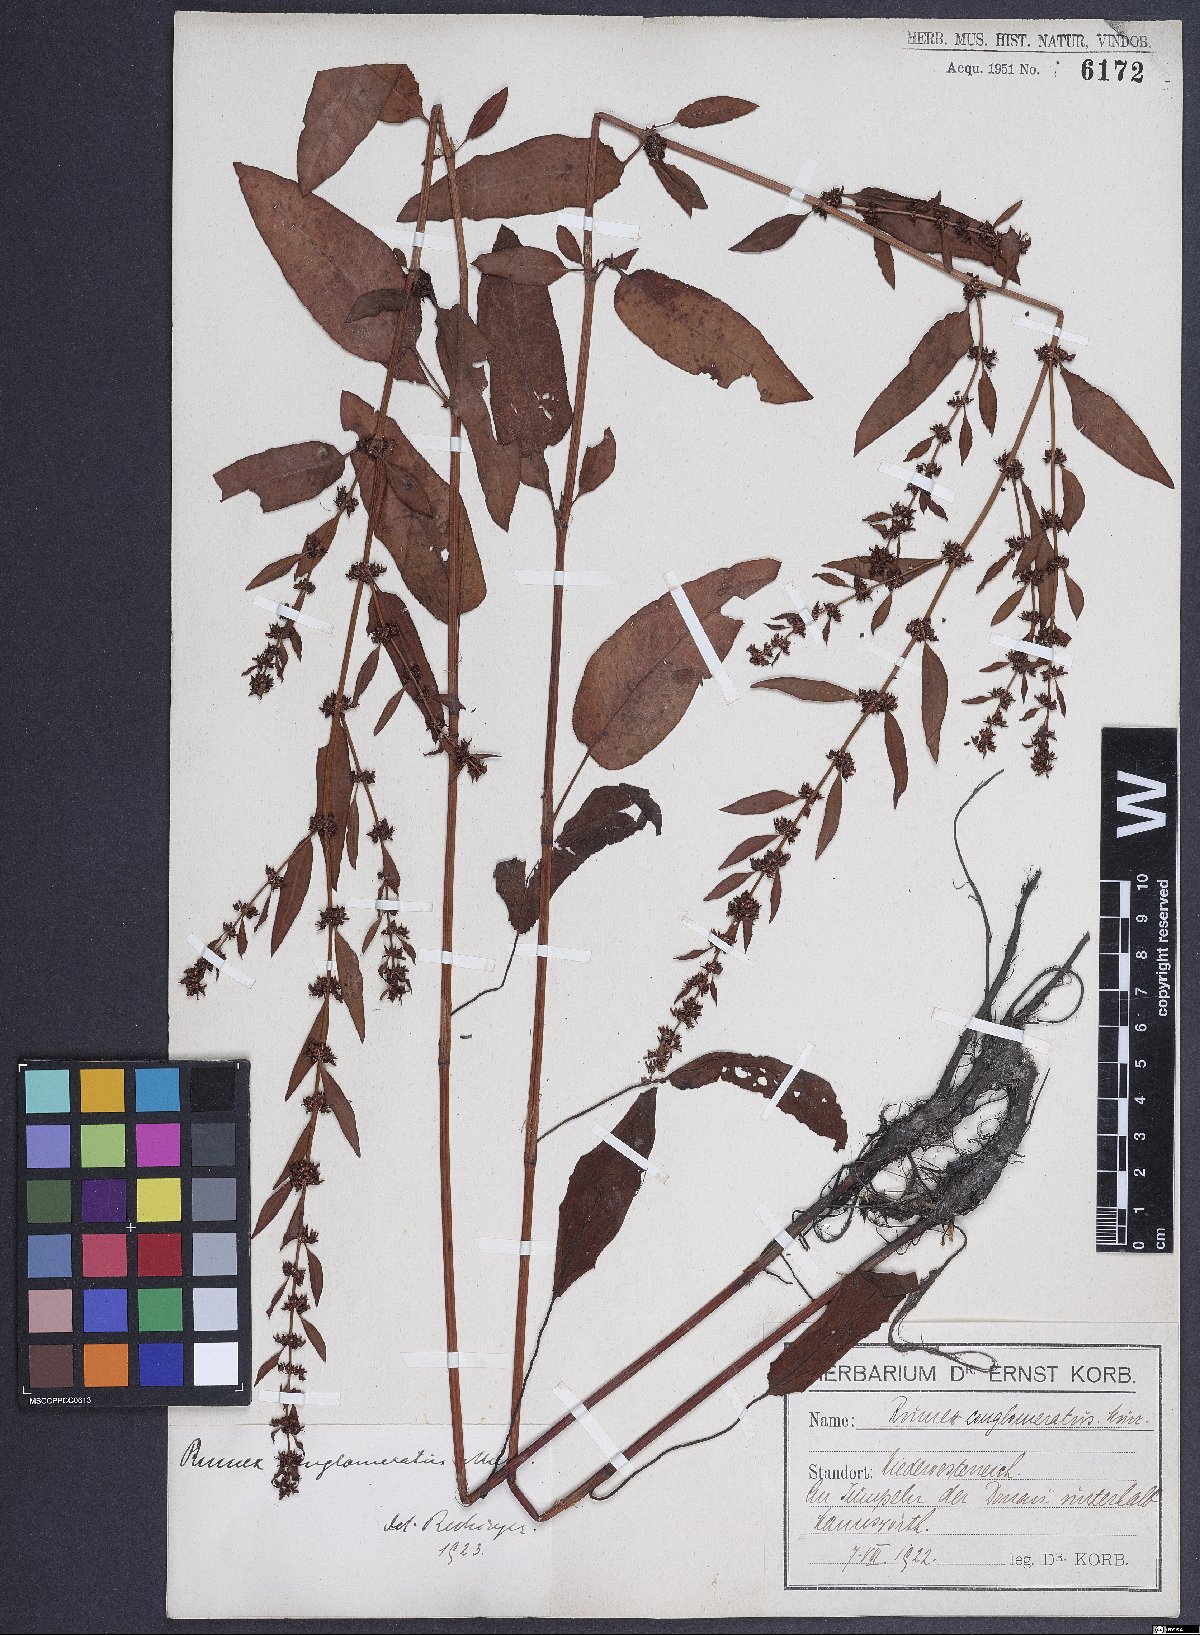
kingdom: Plantae
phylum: Tracheophyta
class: Magnoliopsida
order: Caryophyllales
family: Polygonaceae
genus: Rumex
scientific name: Rumex conglomeratus
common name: Clustered dock
